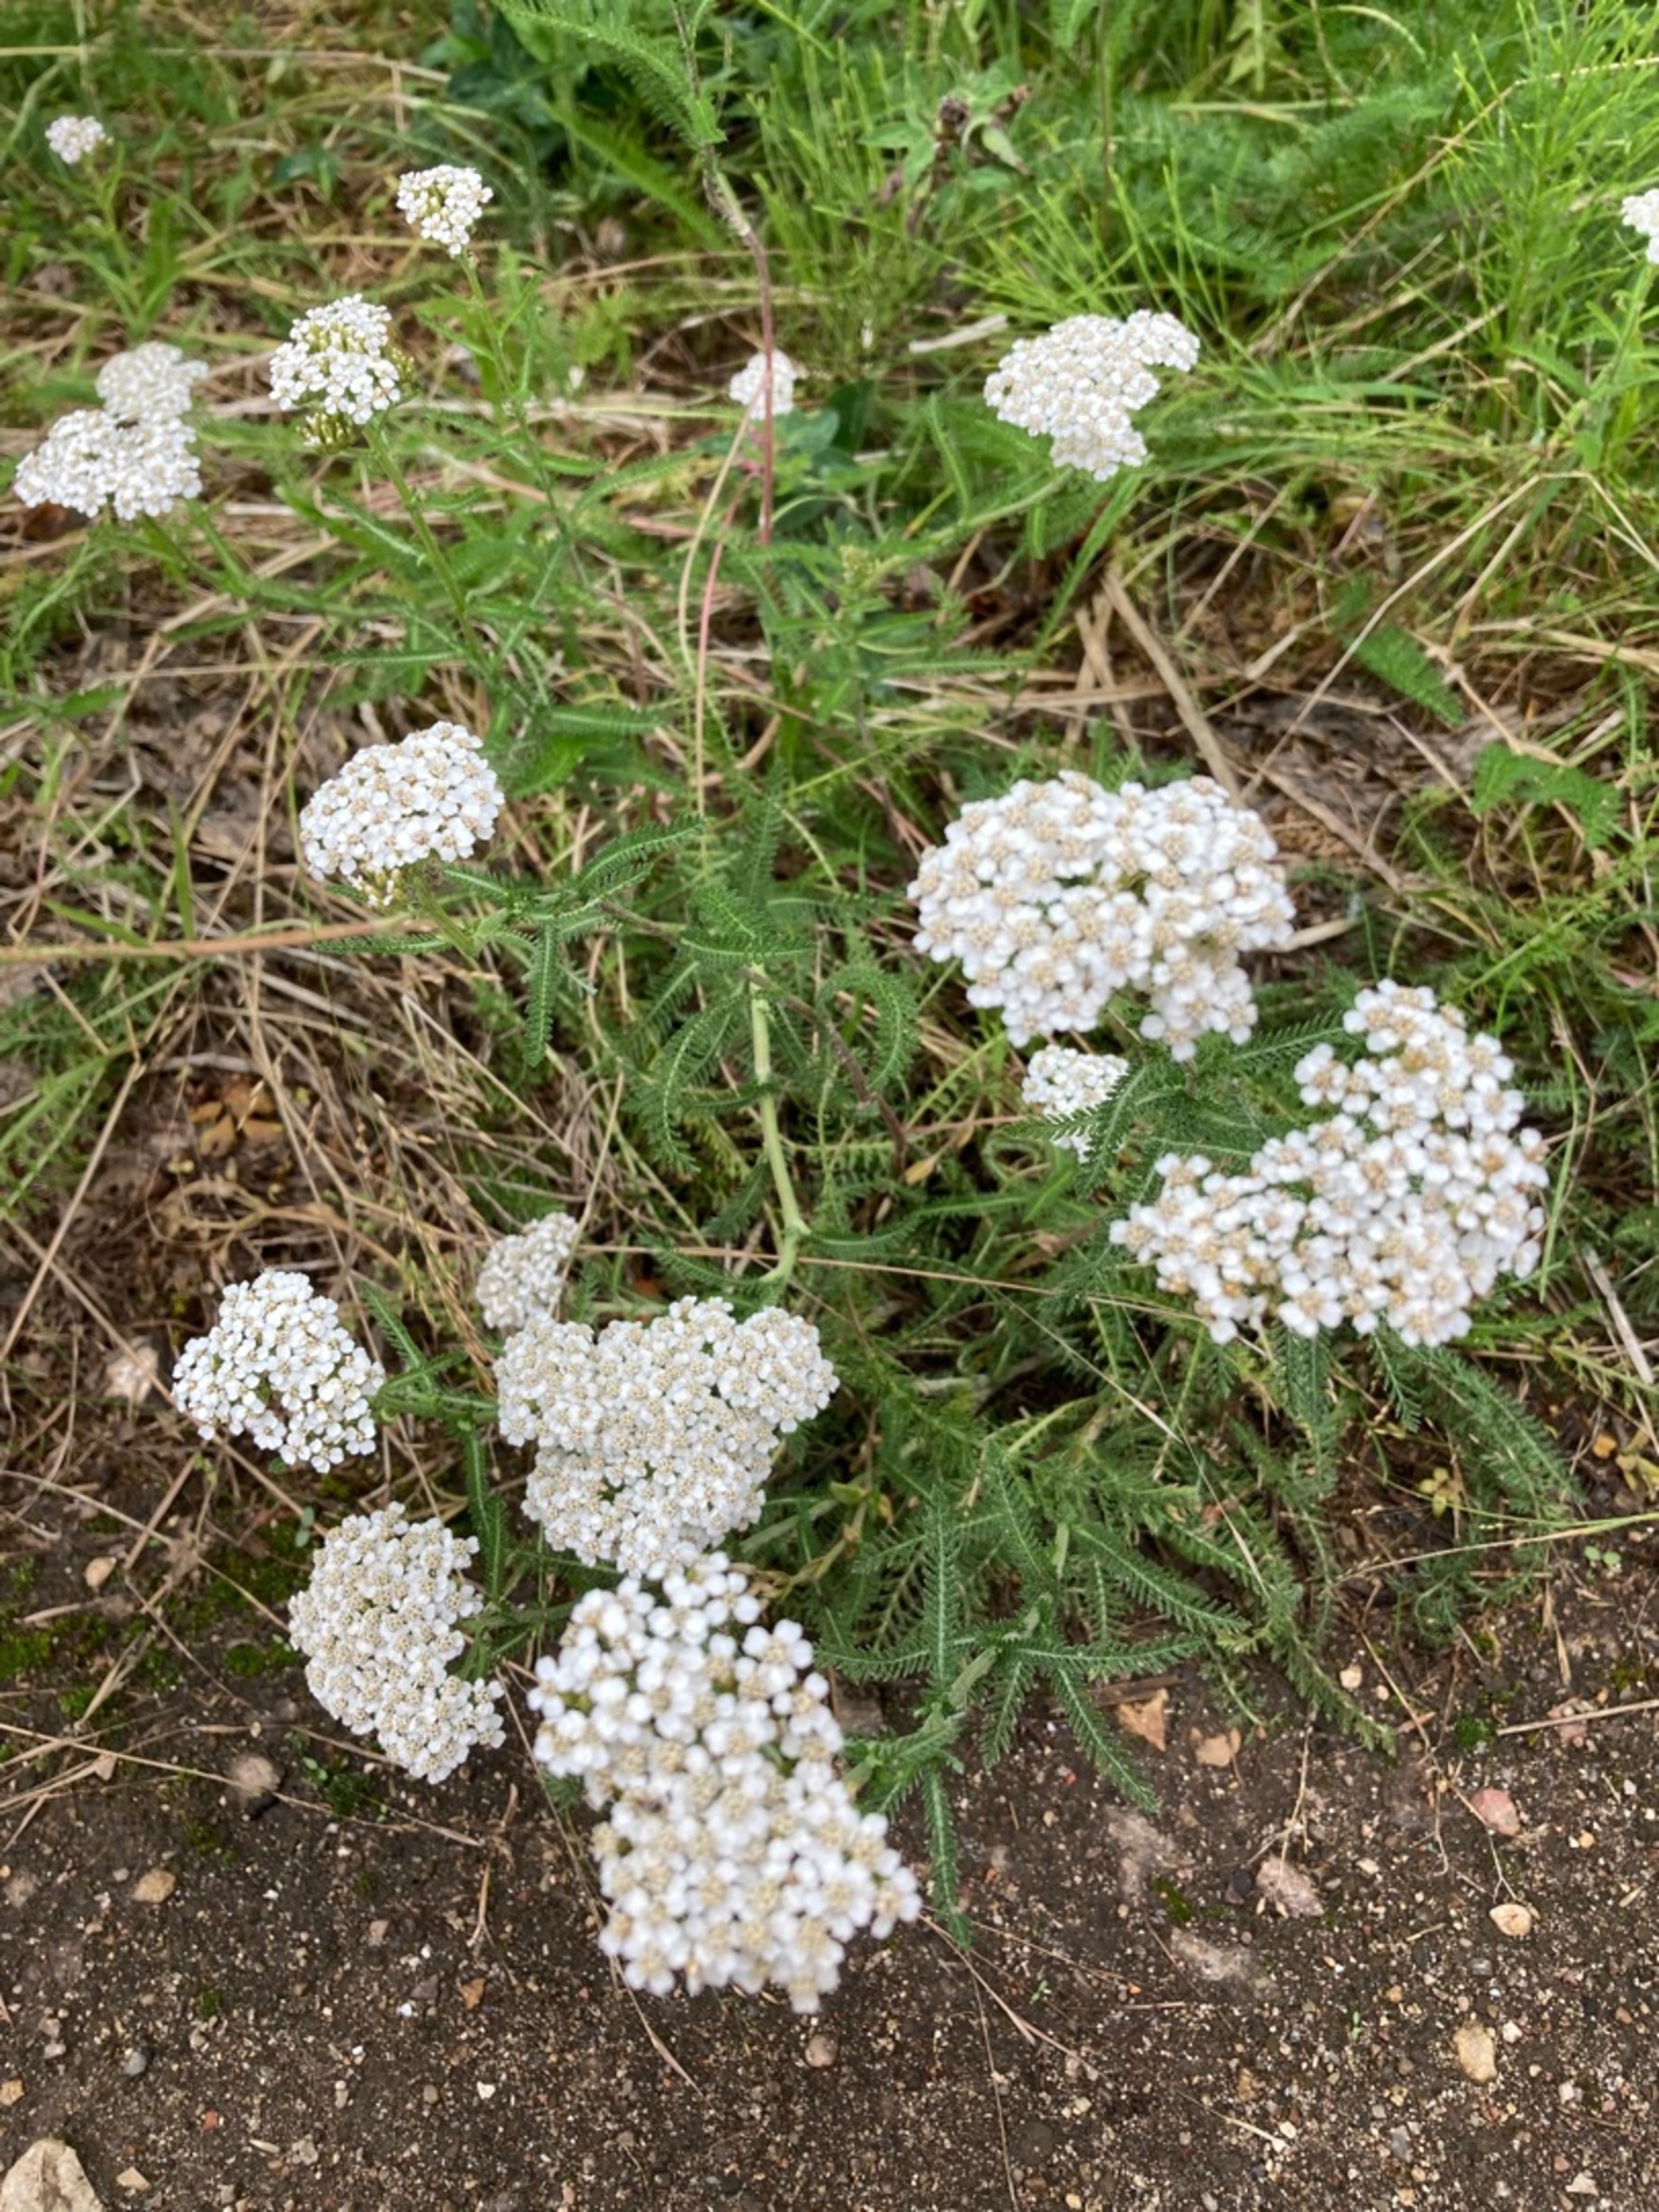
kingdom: Plantae
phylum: Tracheophyta
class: Magnoliopsida
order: Asterales
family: Asteraceae
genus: Achillea
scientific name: Achillea millefolium
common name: Almindelig røllike
